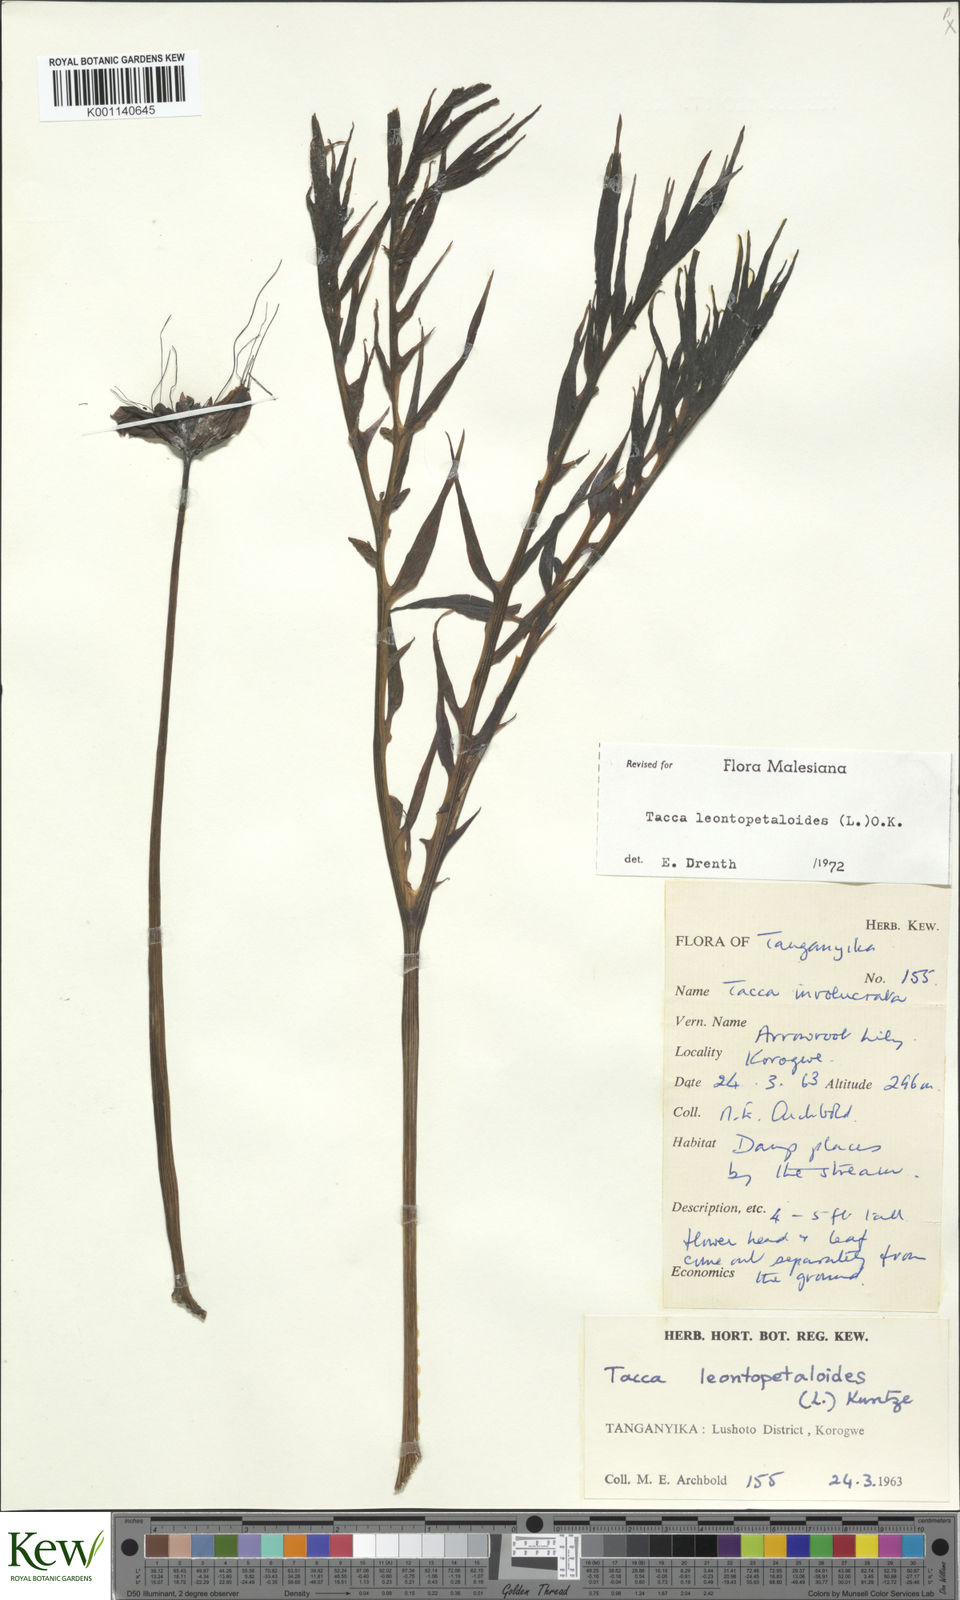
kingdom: Plantae
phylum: Tracheophyta
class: Liliopsida
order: Dioscoreales
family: Dioscoreaceae
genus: Tacca
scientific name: Tacca leontopetaloides
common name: Arrowroot
